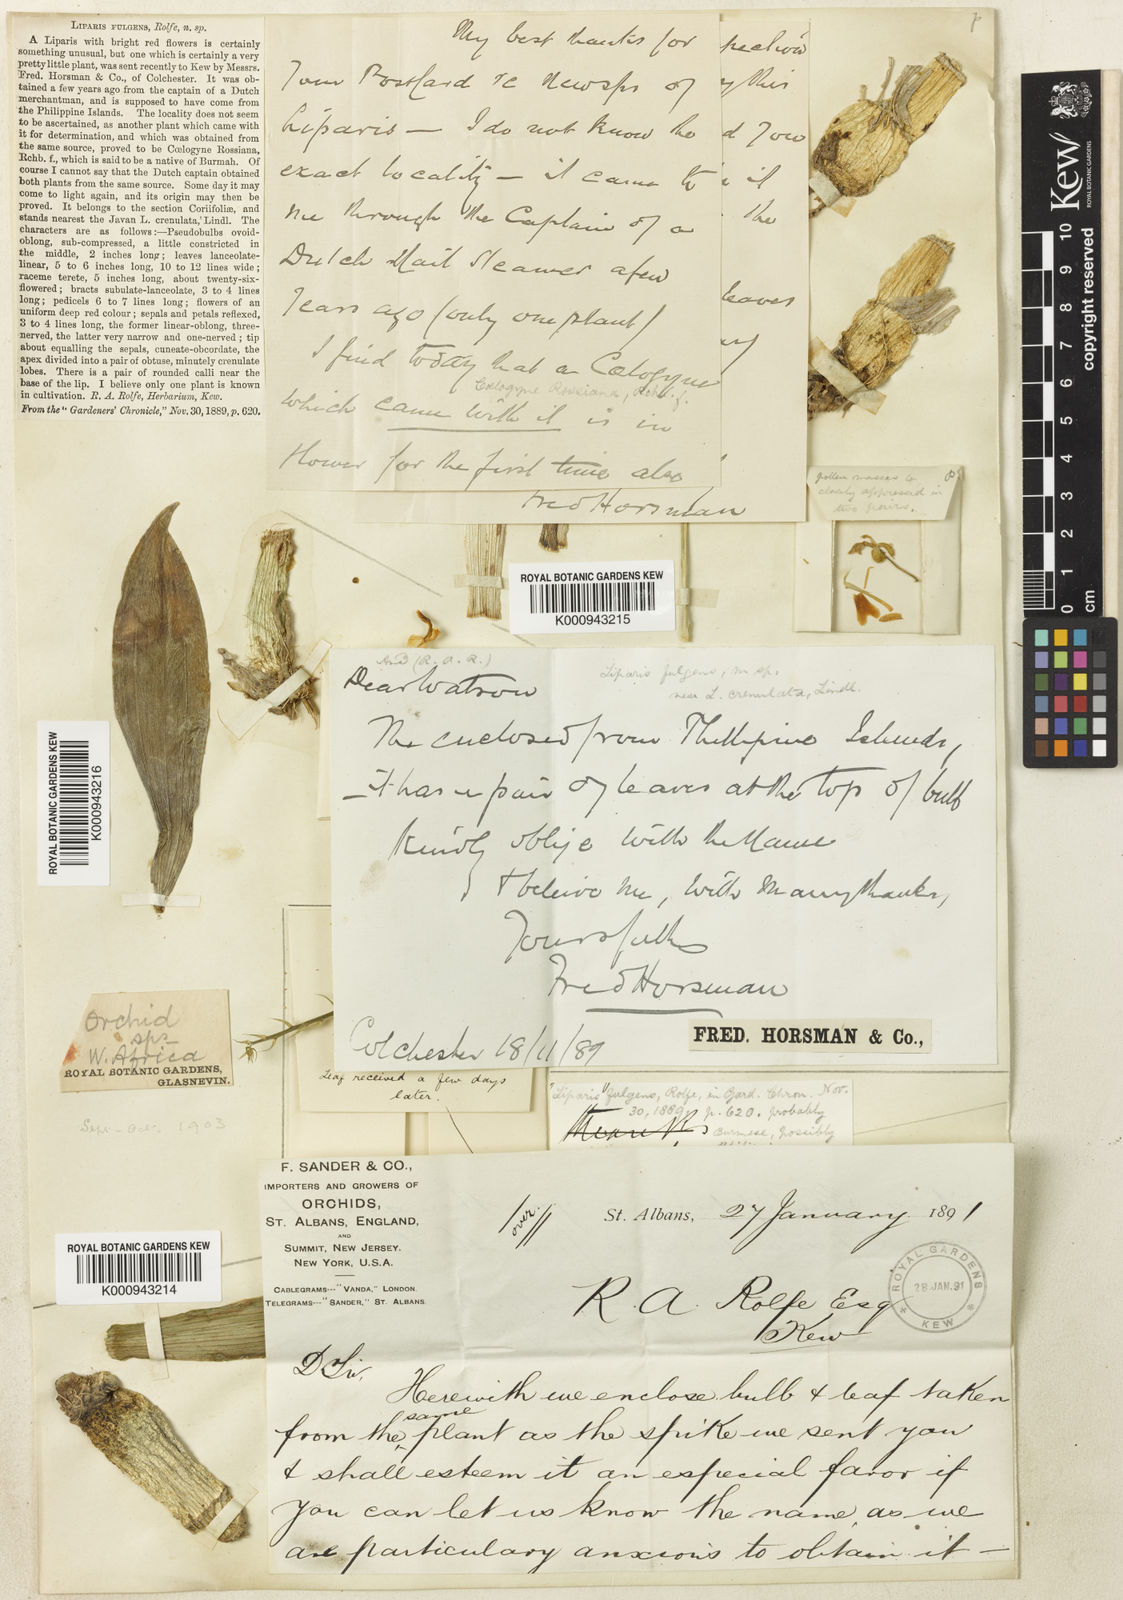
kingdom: Plantae
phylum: Tracheophyta
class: Liliopsida
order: Asparagales
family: Orchidaceae
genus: Liparis
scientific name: Liparis latifolia
